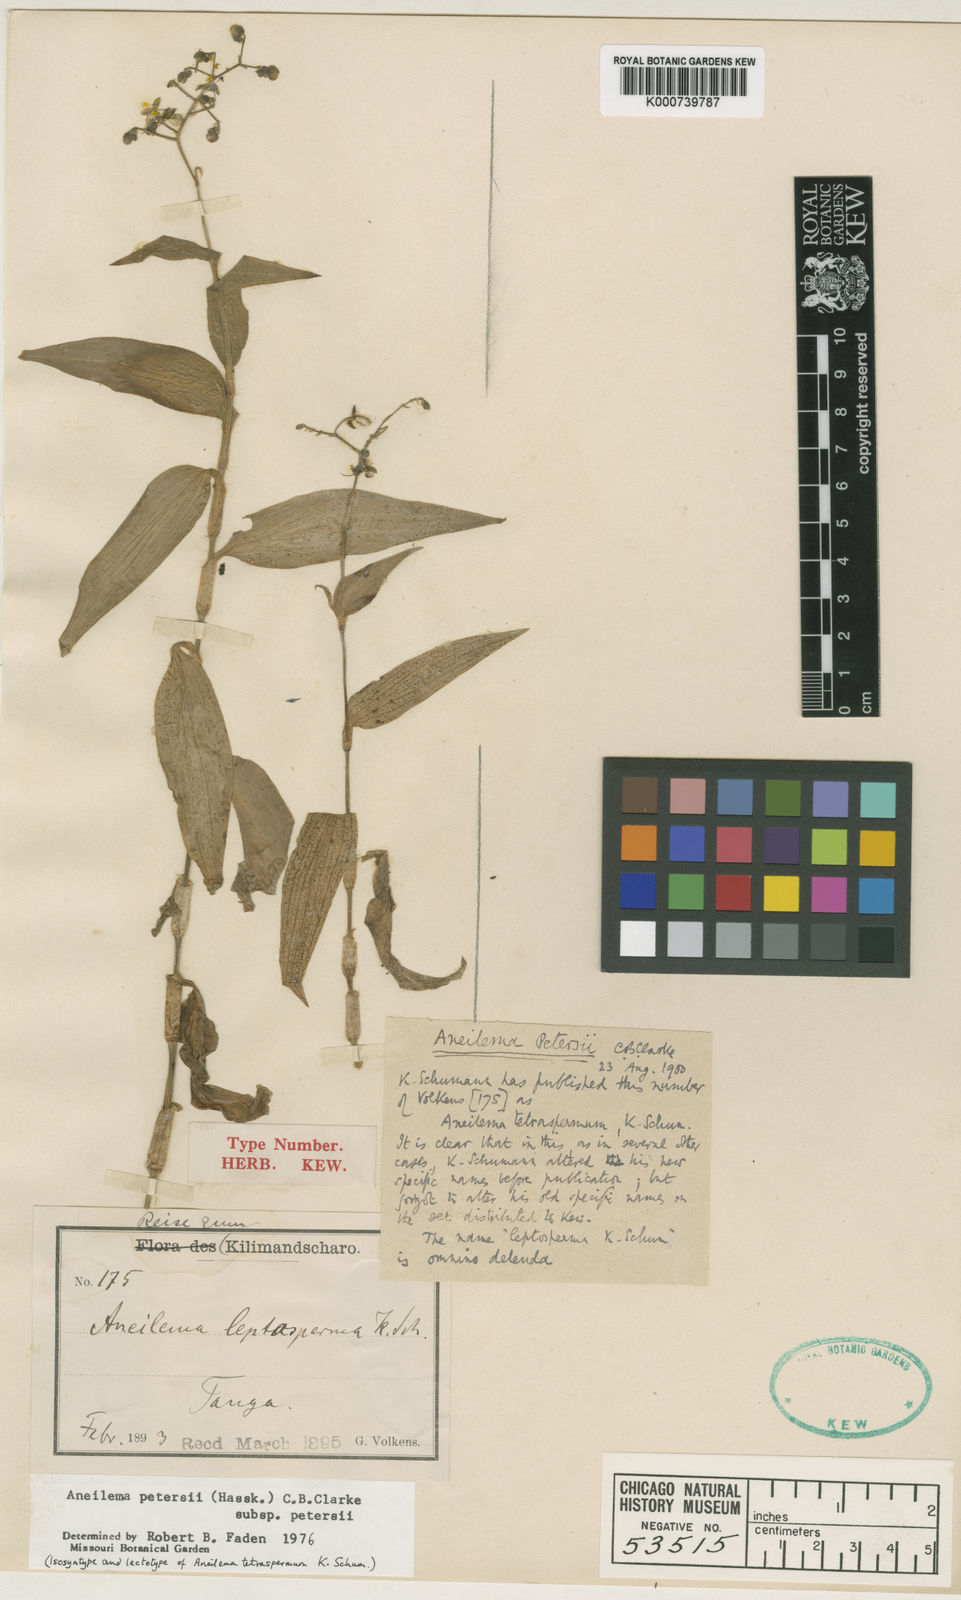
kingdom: Plantae
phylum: Tracheophyta
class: Liliopsida
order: Commelinales
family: Commelinaceae
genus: Aneilema
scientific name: Aneilema petersii
